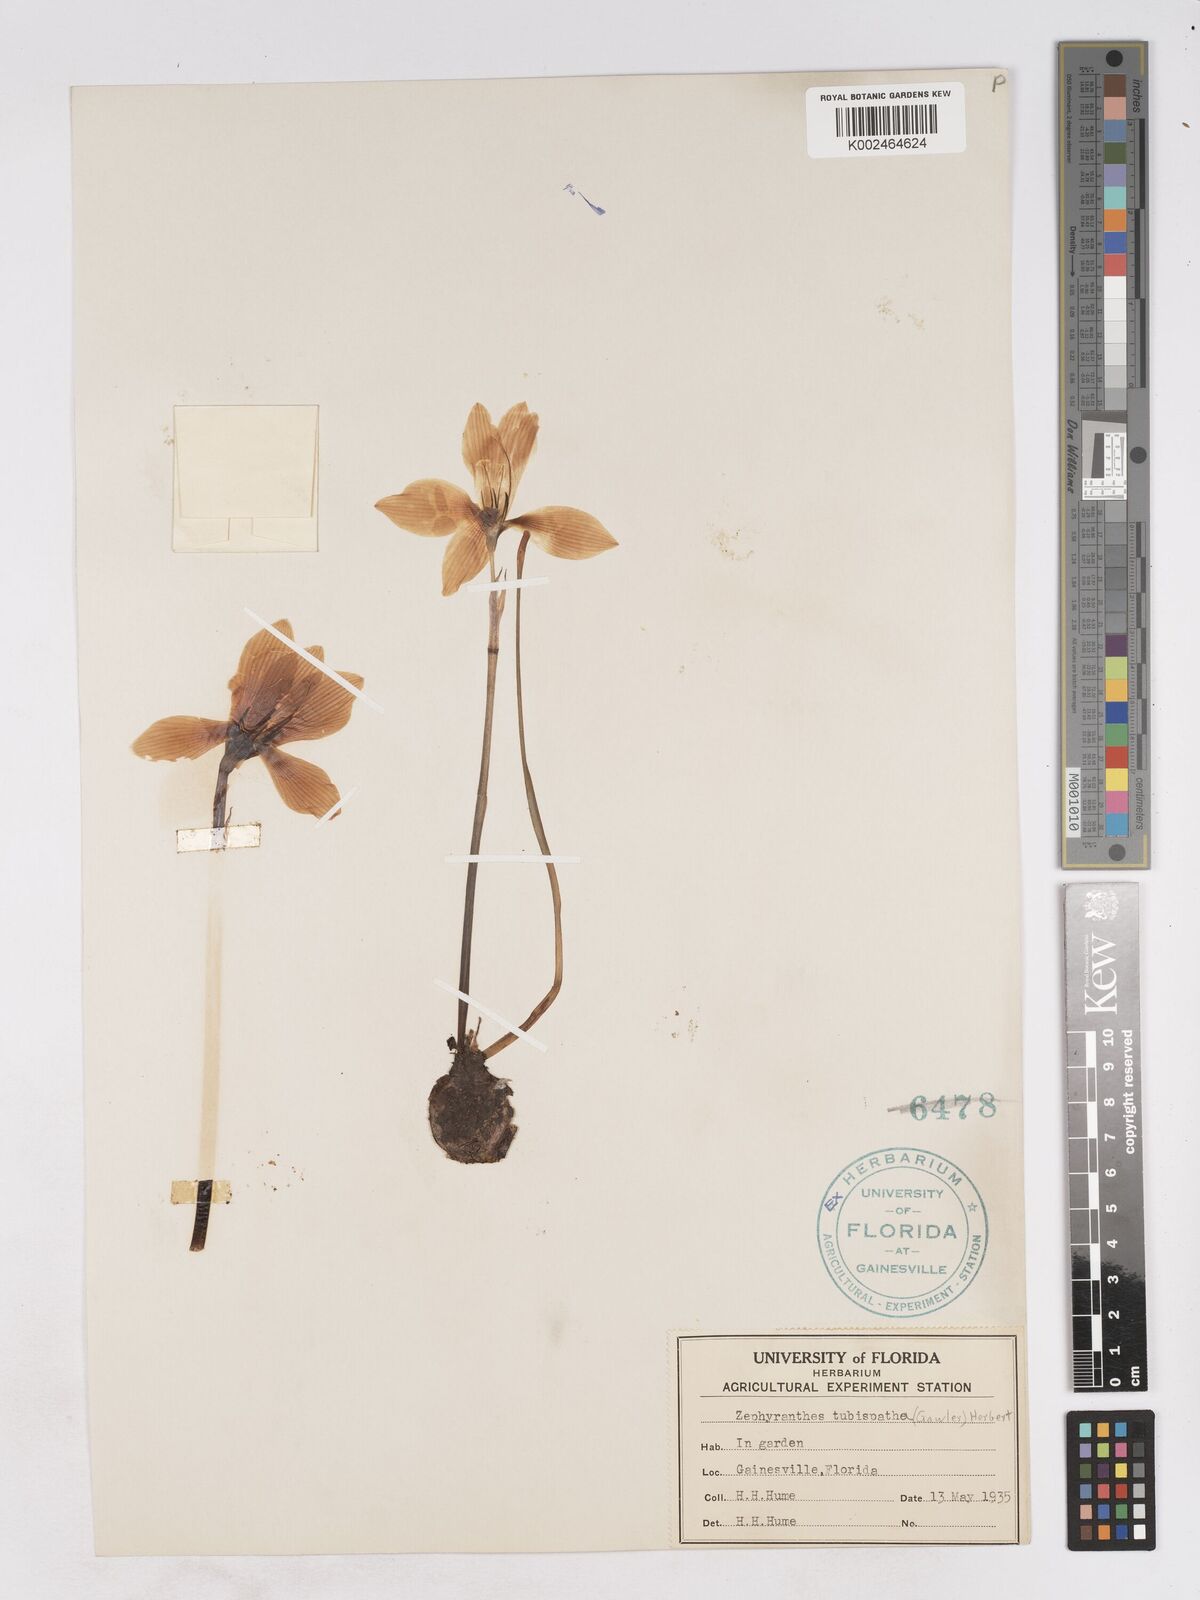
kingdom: Plantae
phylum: Tracheophyta
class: Liliopsida
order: Asparagales
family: Amaryllidaceae
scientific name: Amaryllidaceae
